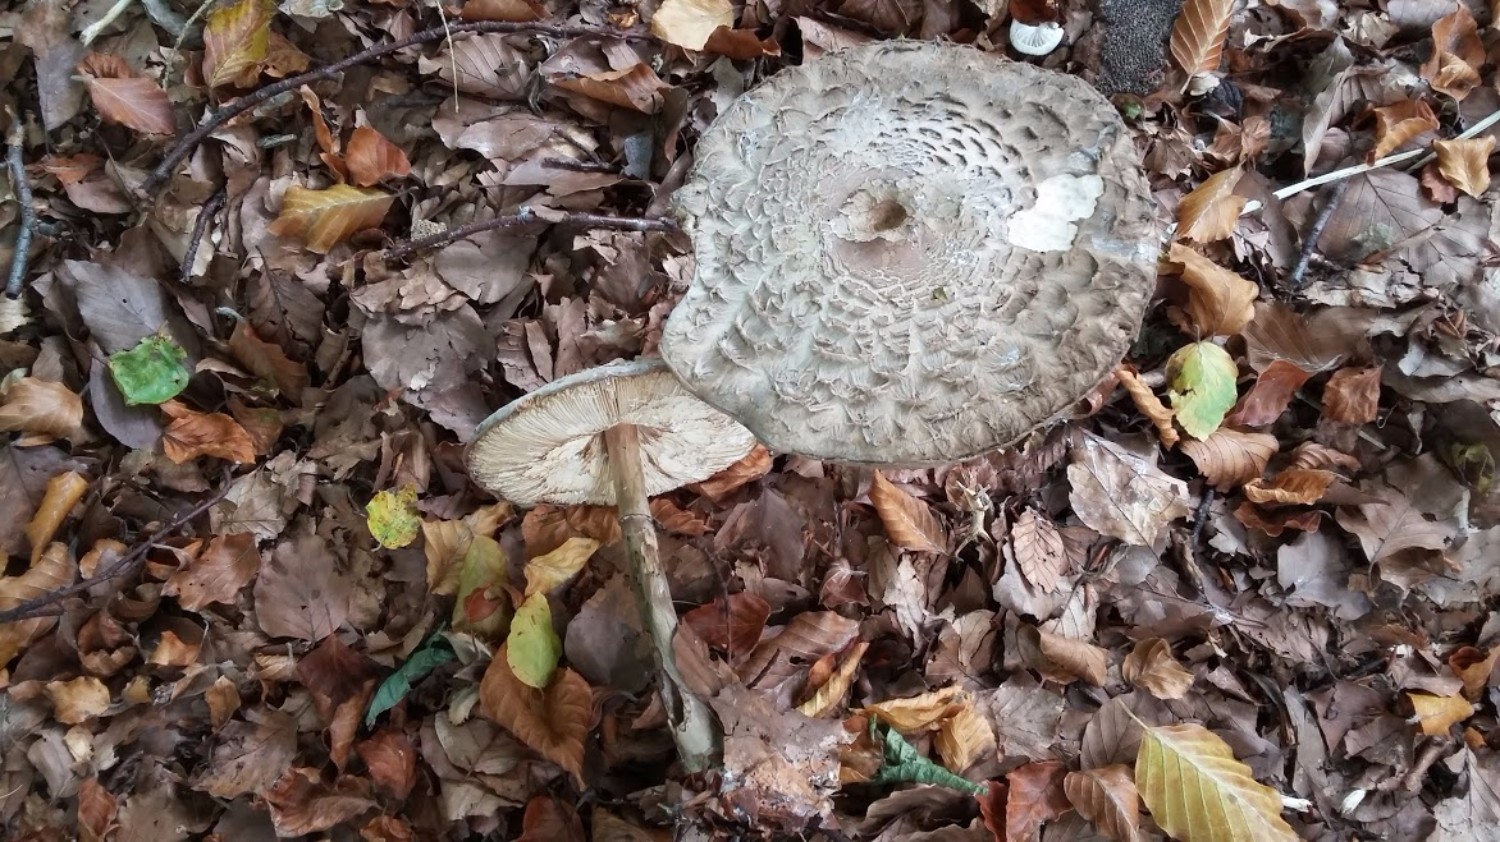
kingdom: Fungi
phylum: Basidiomycota
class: Agaricomycetes
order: Agaricales
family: Agaricaceae
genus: Chlorophyllum
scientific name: Chlorophyllum olivieri
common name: almindelig rabarberhat
